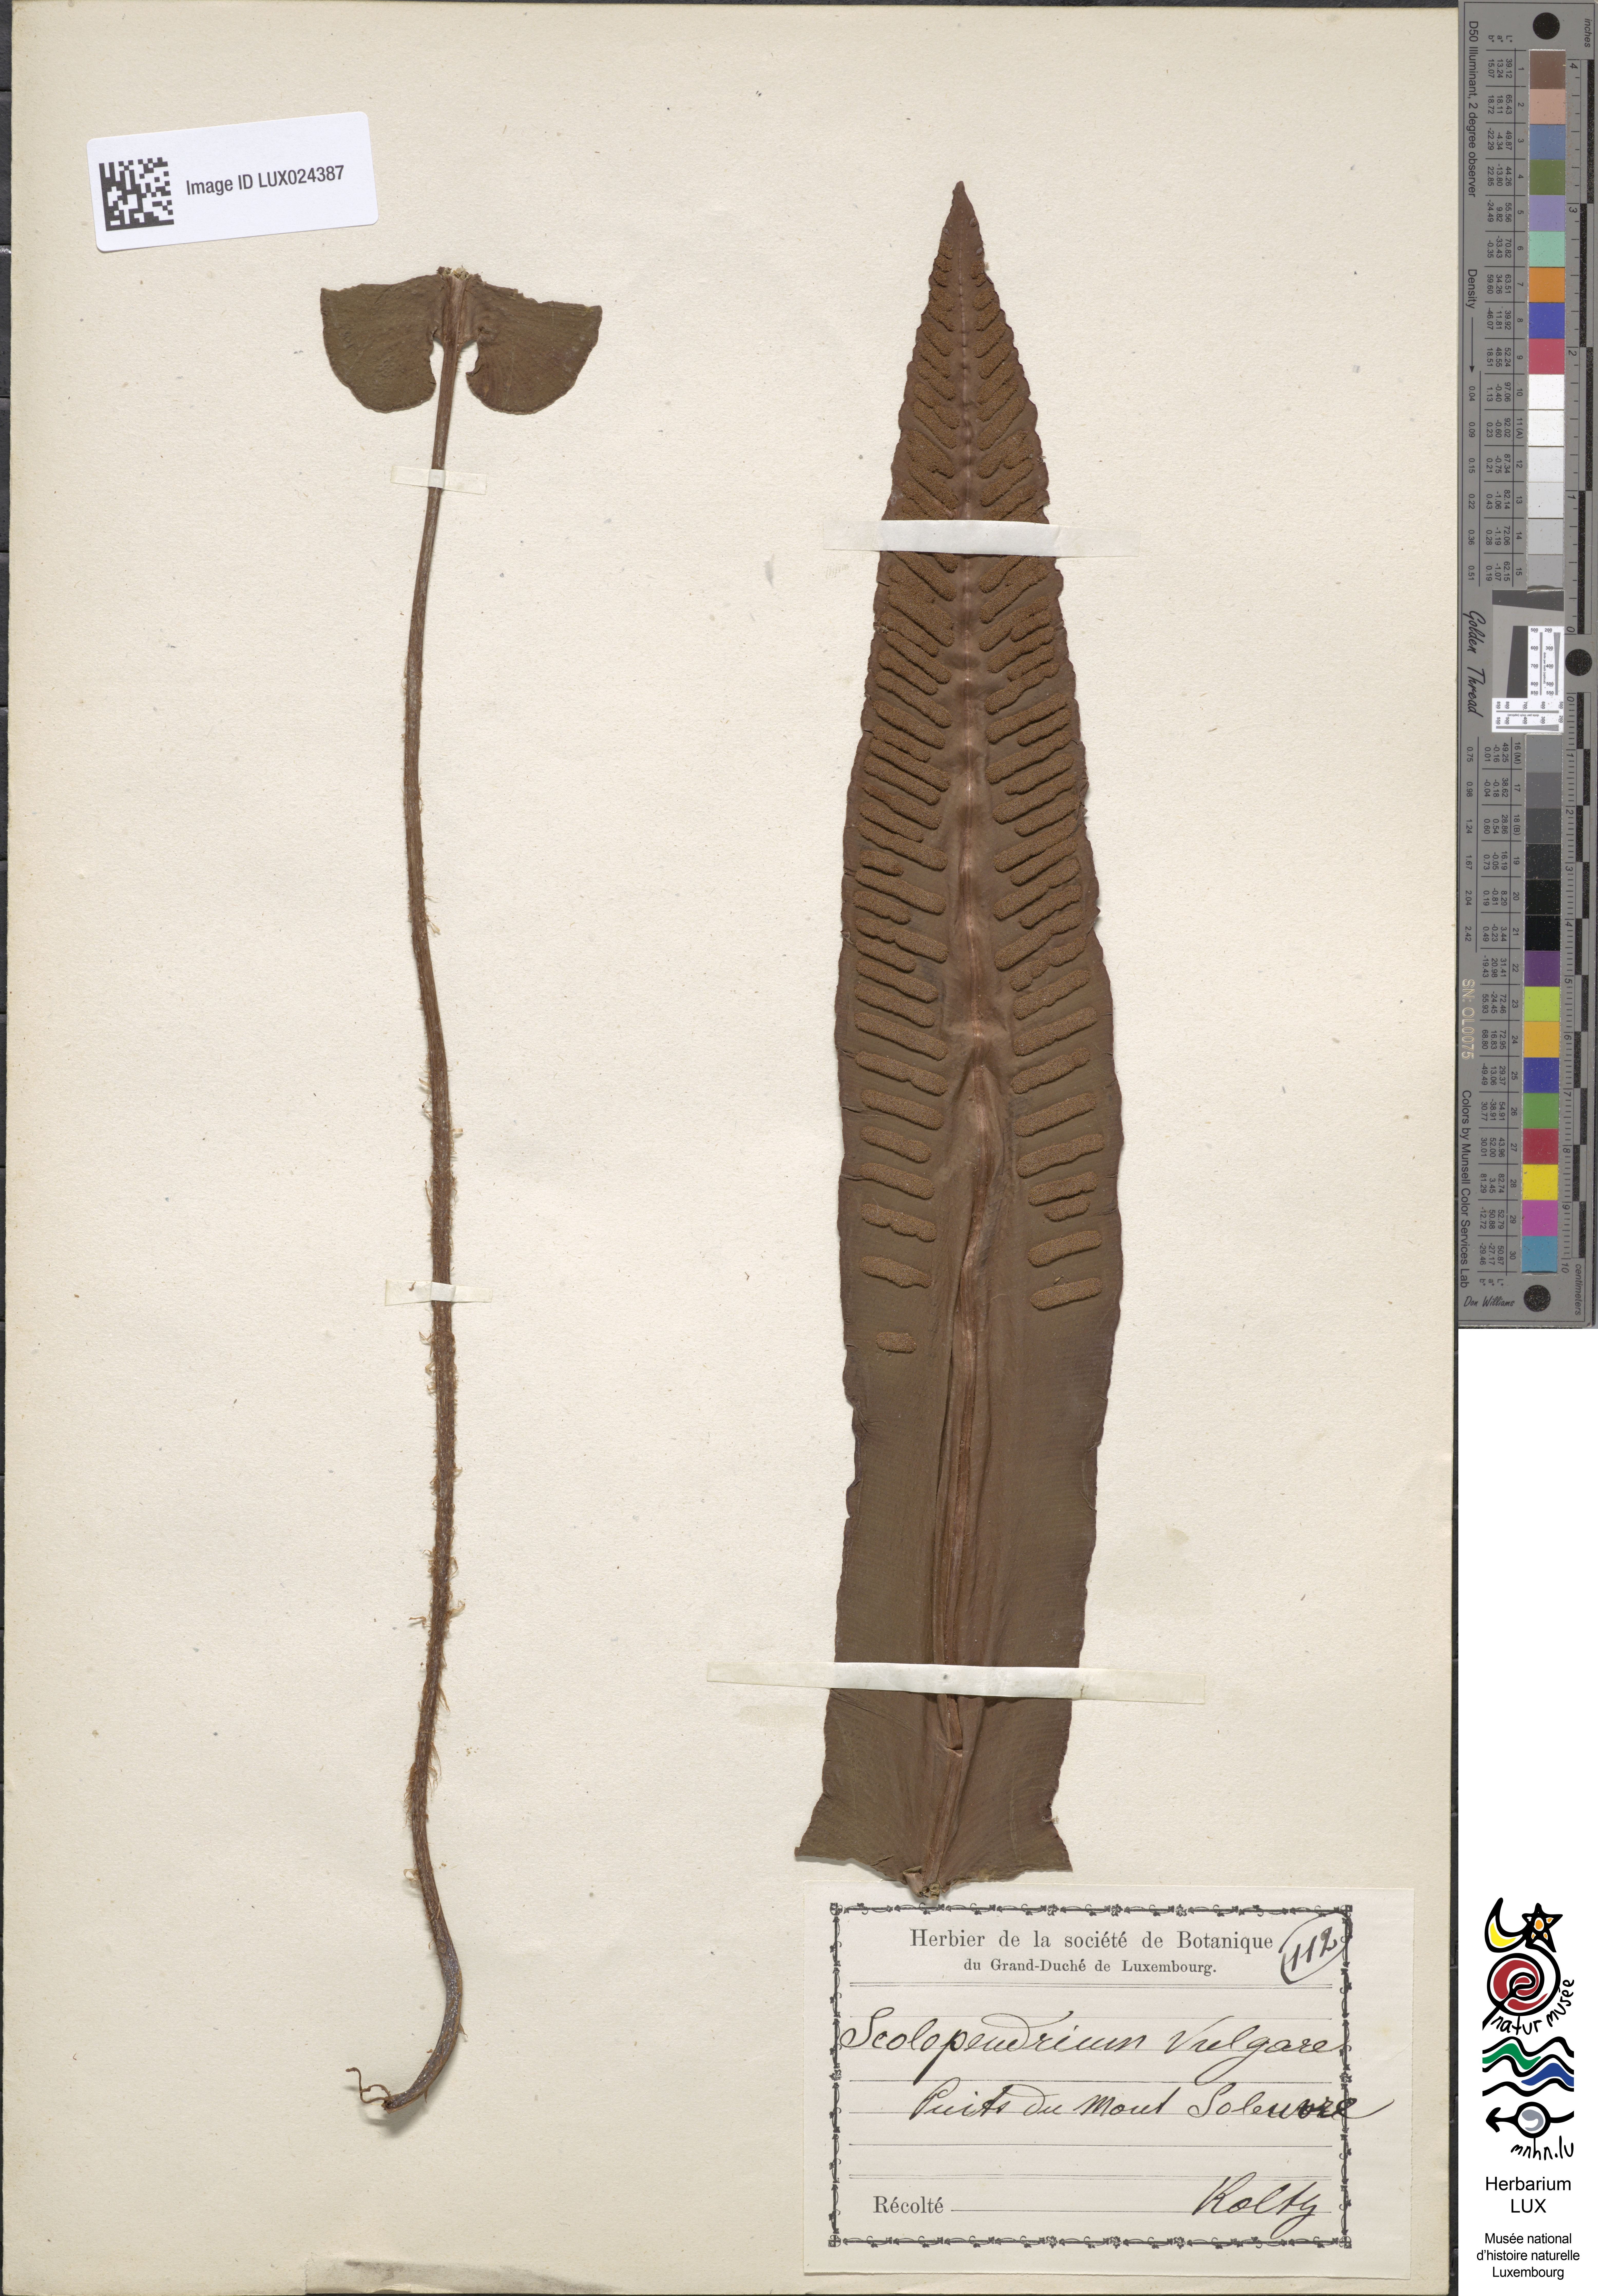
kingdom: Plantae
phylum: Tracheophyta
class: Polypodiopsida
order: Polypodiales
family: Aspleniaceae
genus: Asplenium
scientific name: Asplenium scolopendrium
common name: Hart's-tongue fern
